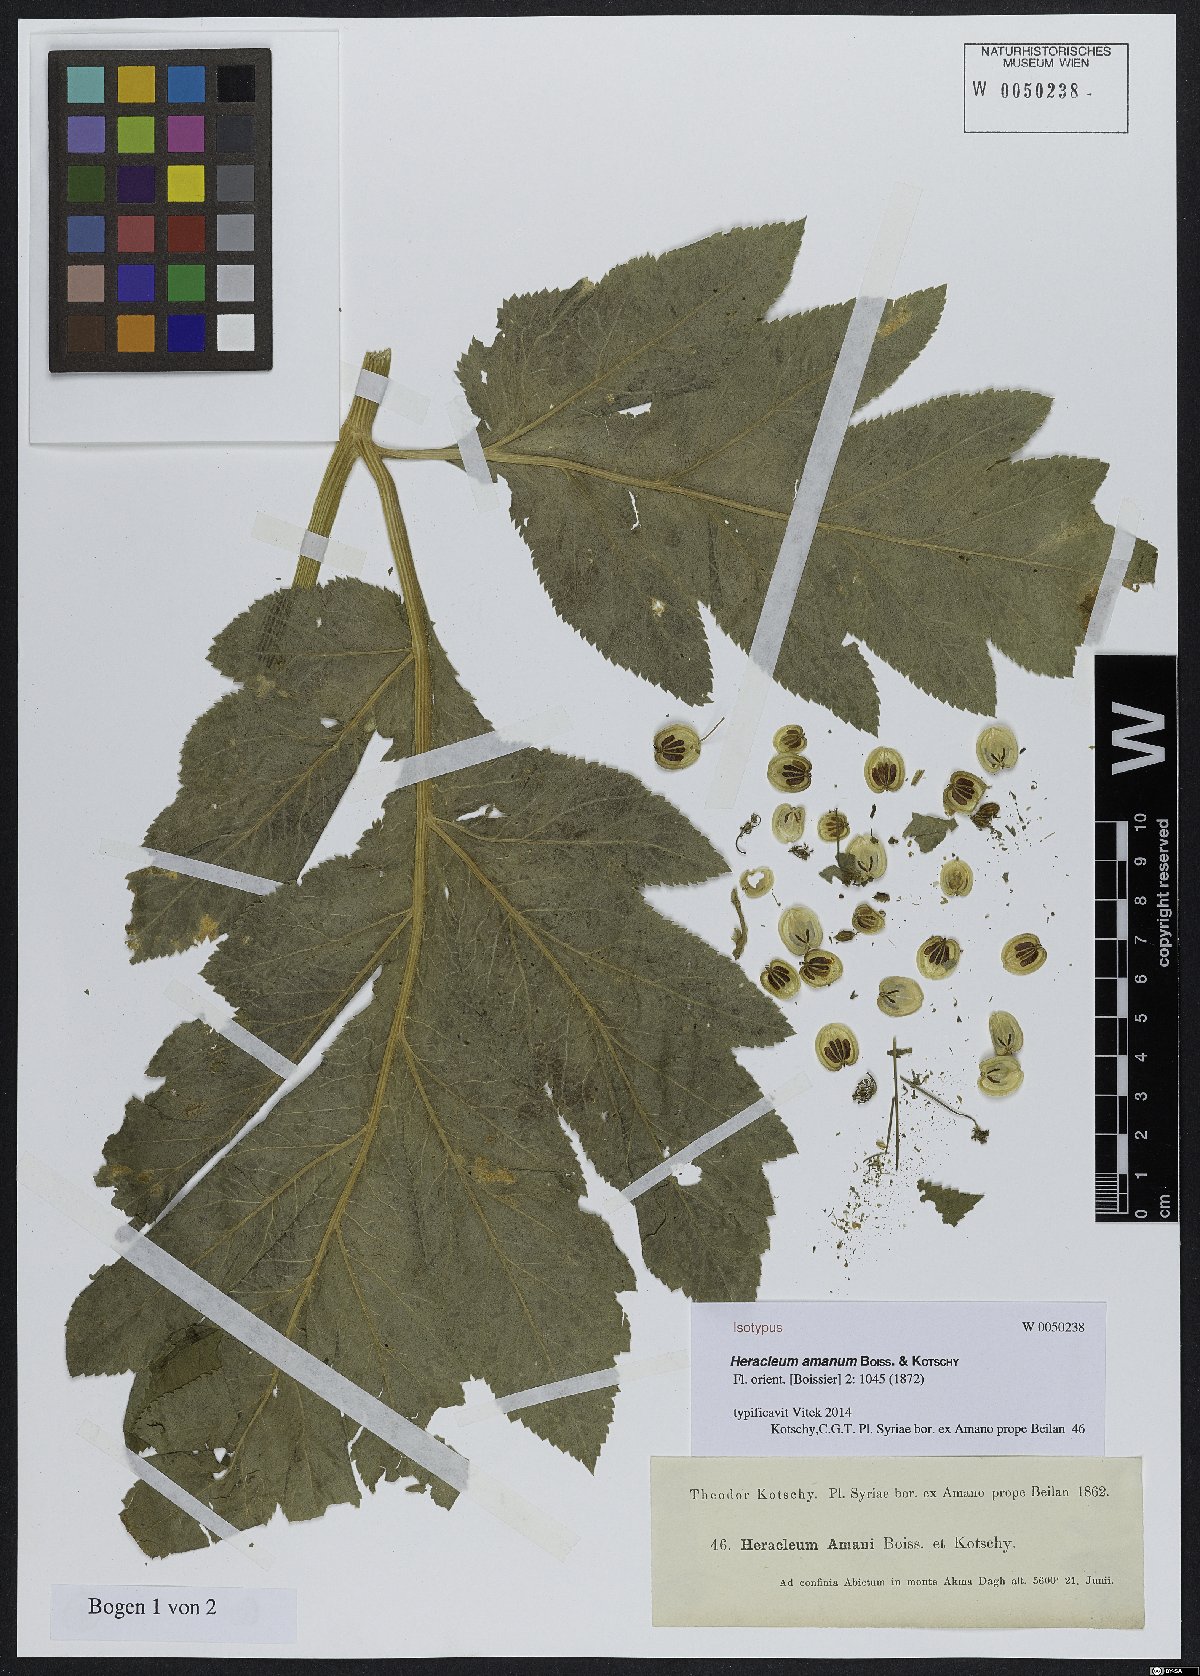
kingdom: Plantae
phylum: Tracheophyta
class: Magnoliopsida
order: Apiales
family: Apiaceae
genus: Heracleum
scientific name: Heracleum amanum
